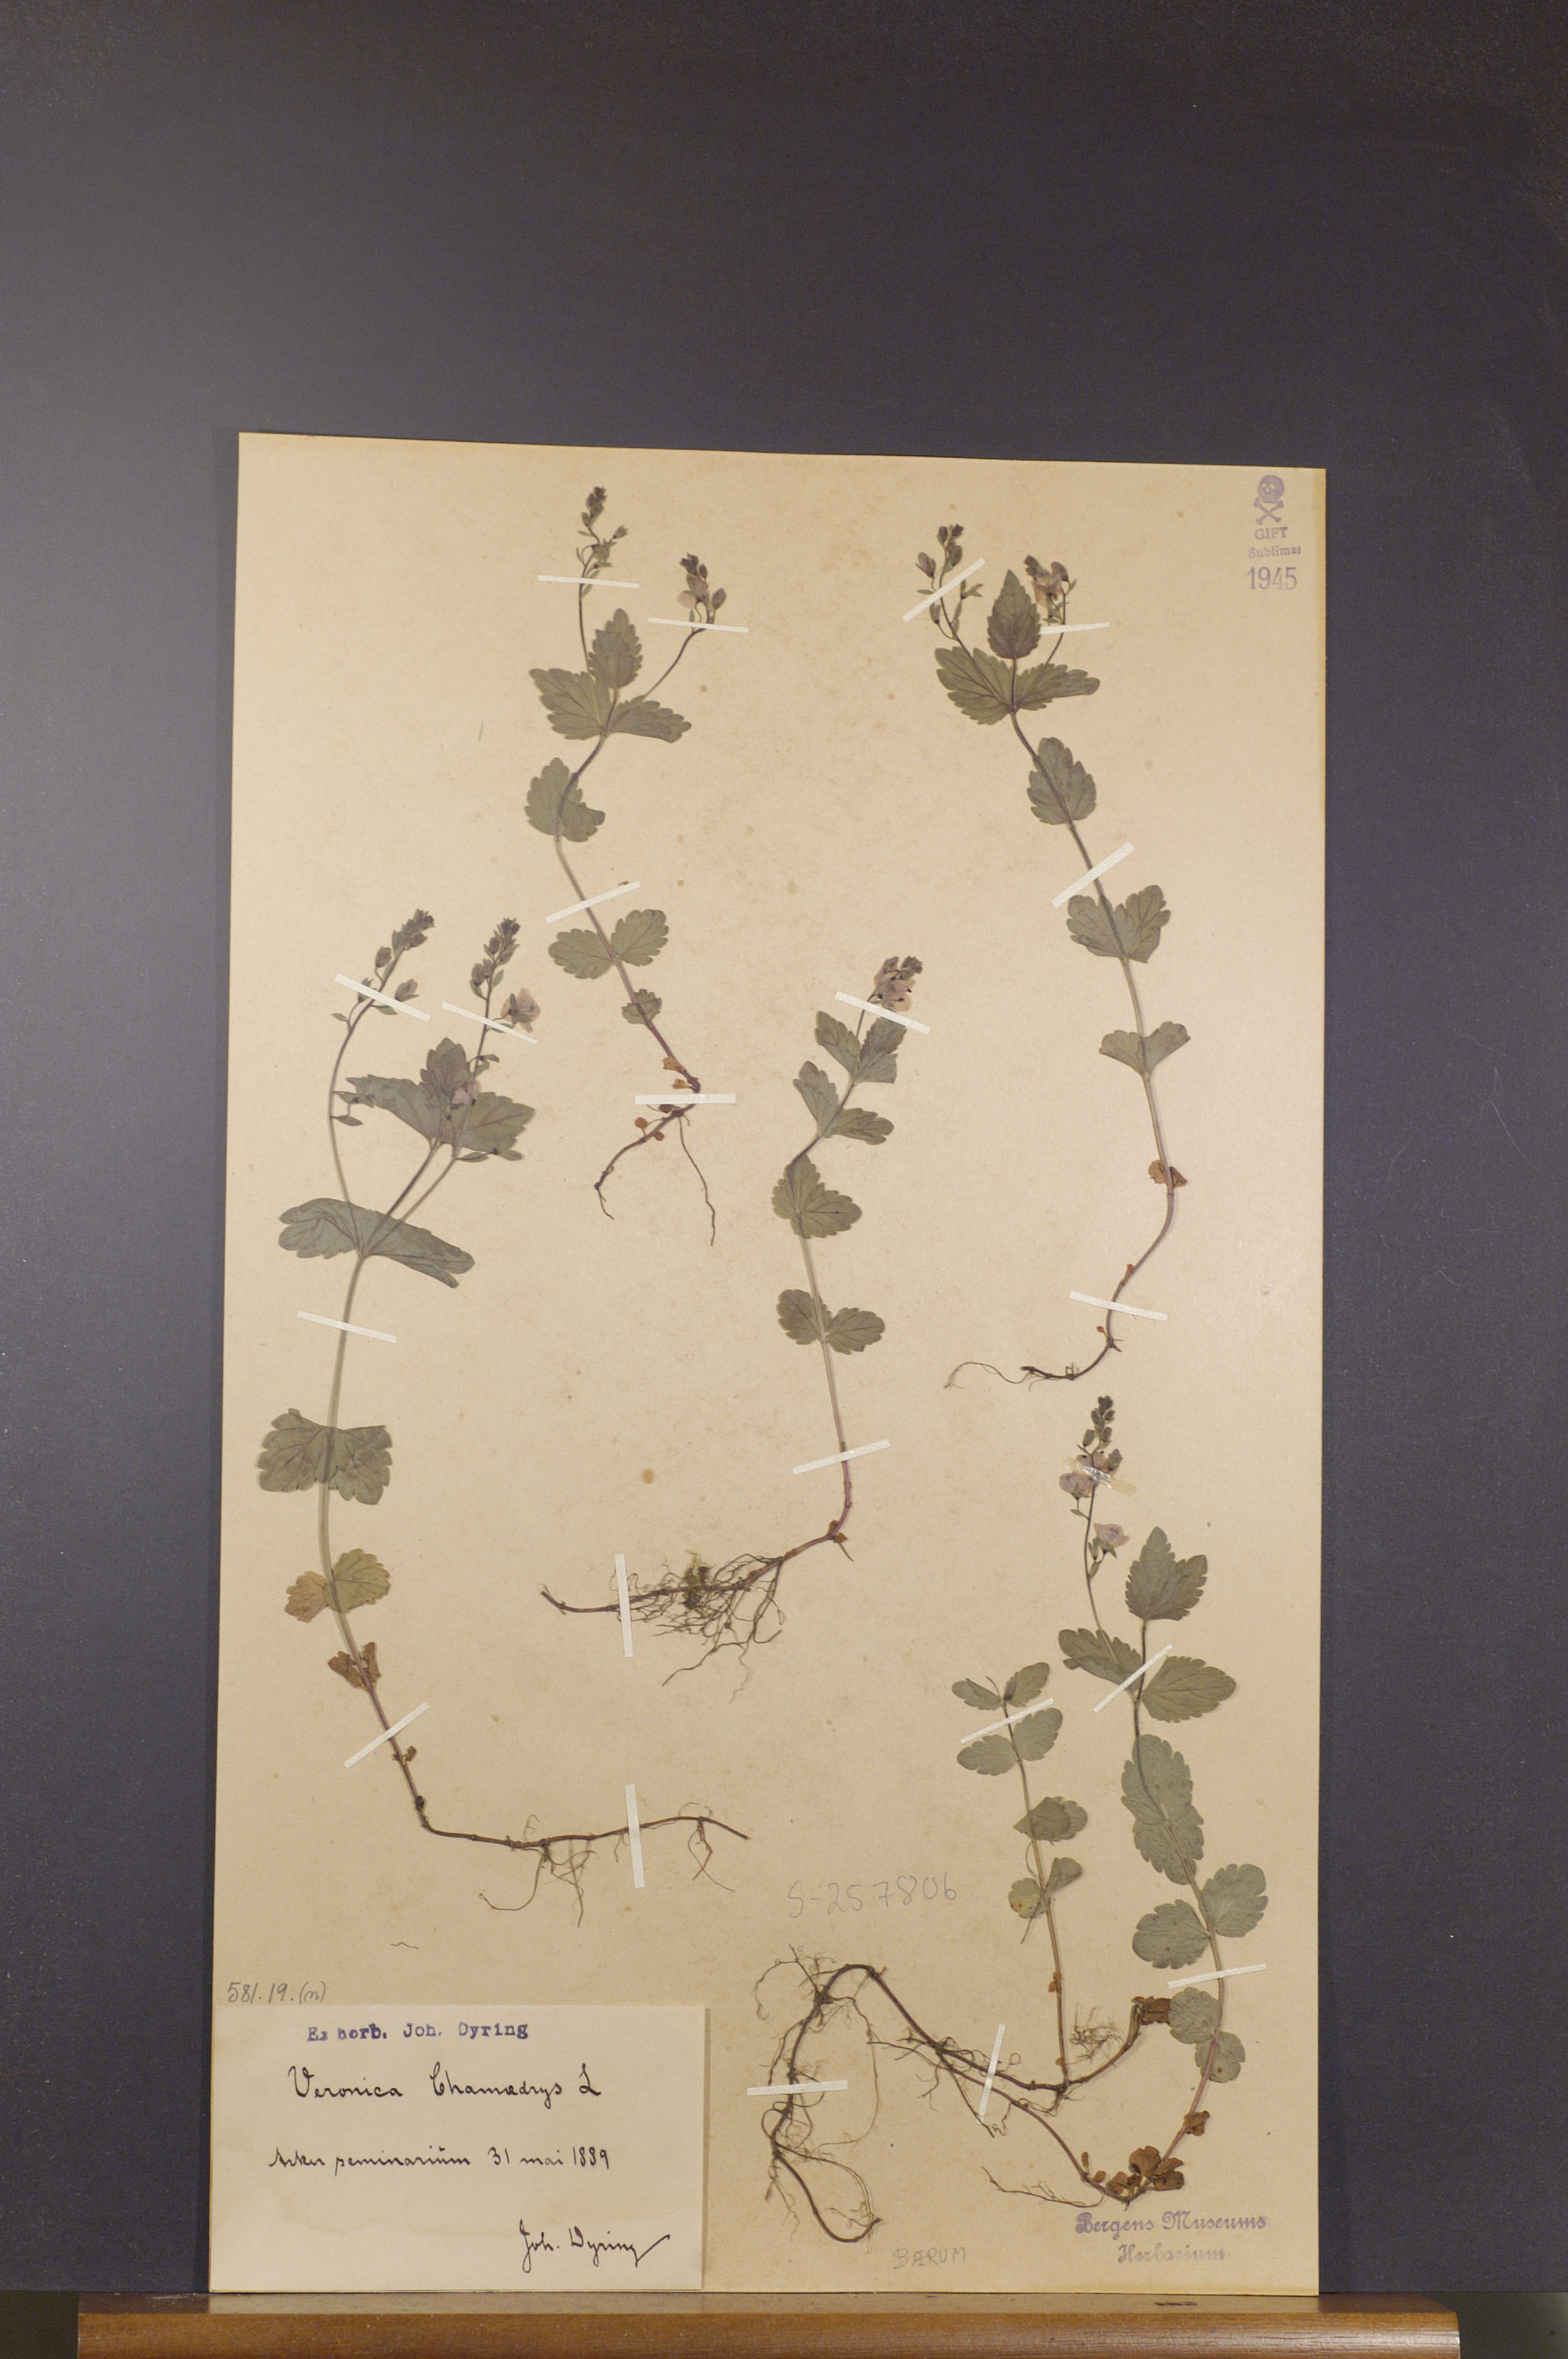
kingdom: Plantae
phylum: Tracheophyta
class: Magnoliopsida
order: Lamiales
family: Plantaginaceae
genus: Veronica
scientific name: Veronica chamaedrys
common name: Germander speedwell
